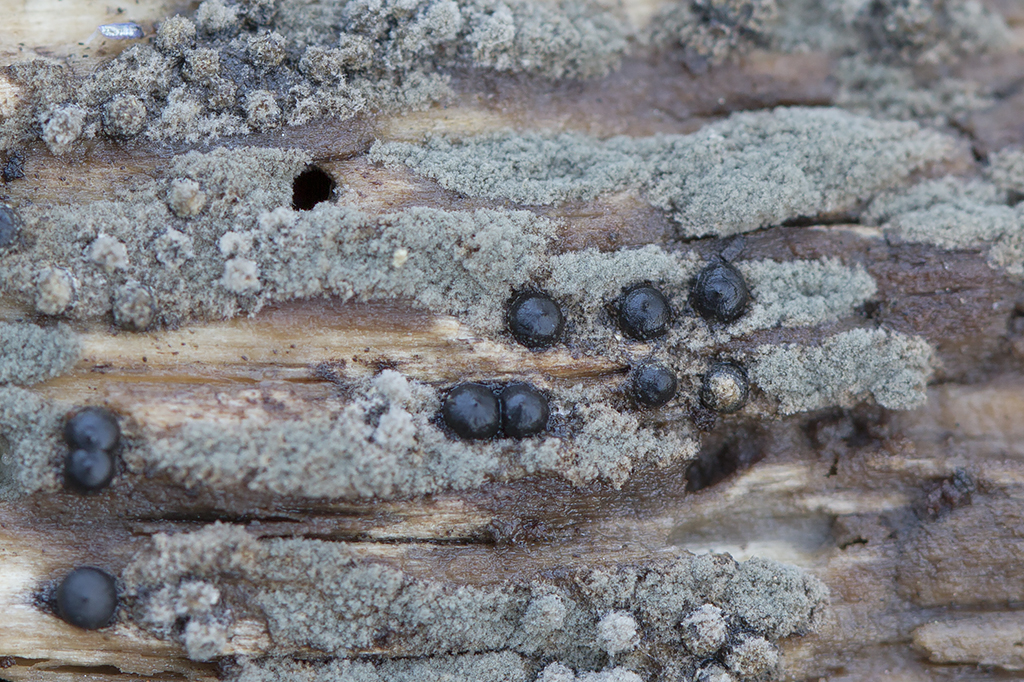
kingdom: Fungi
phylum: Ascomycota
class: Sordariomycetes
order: Xylariales
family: Xylariaceae
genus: Rosellinia
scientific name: Rosellinia marcucciana
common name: måtteløs kulkaviar
